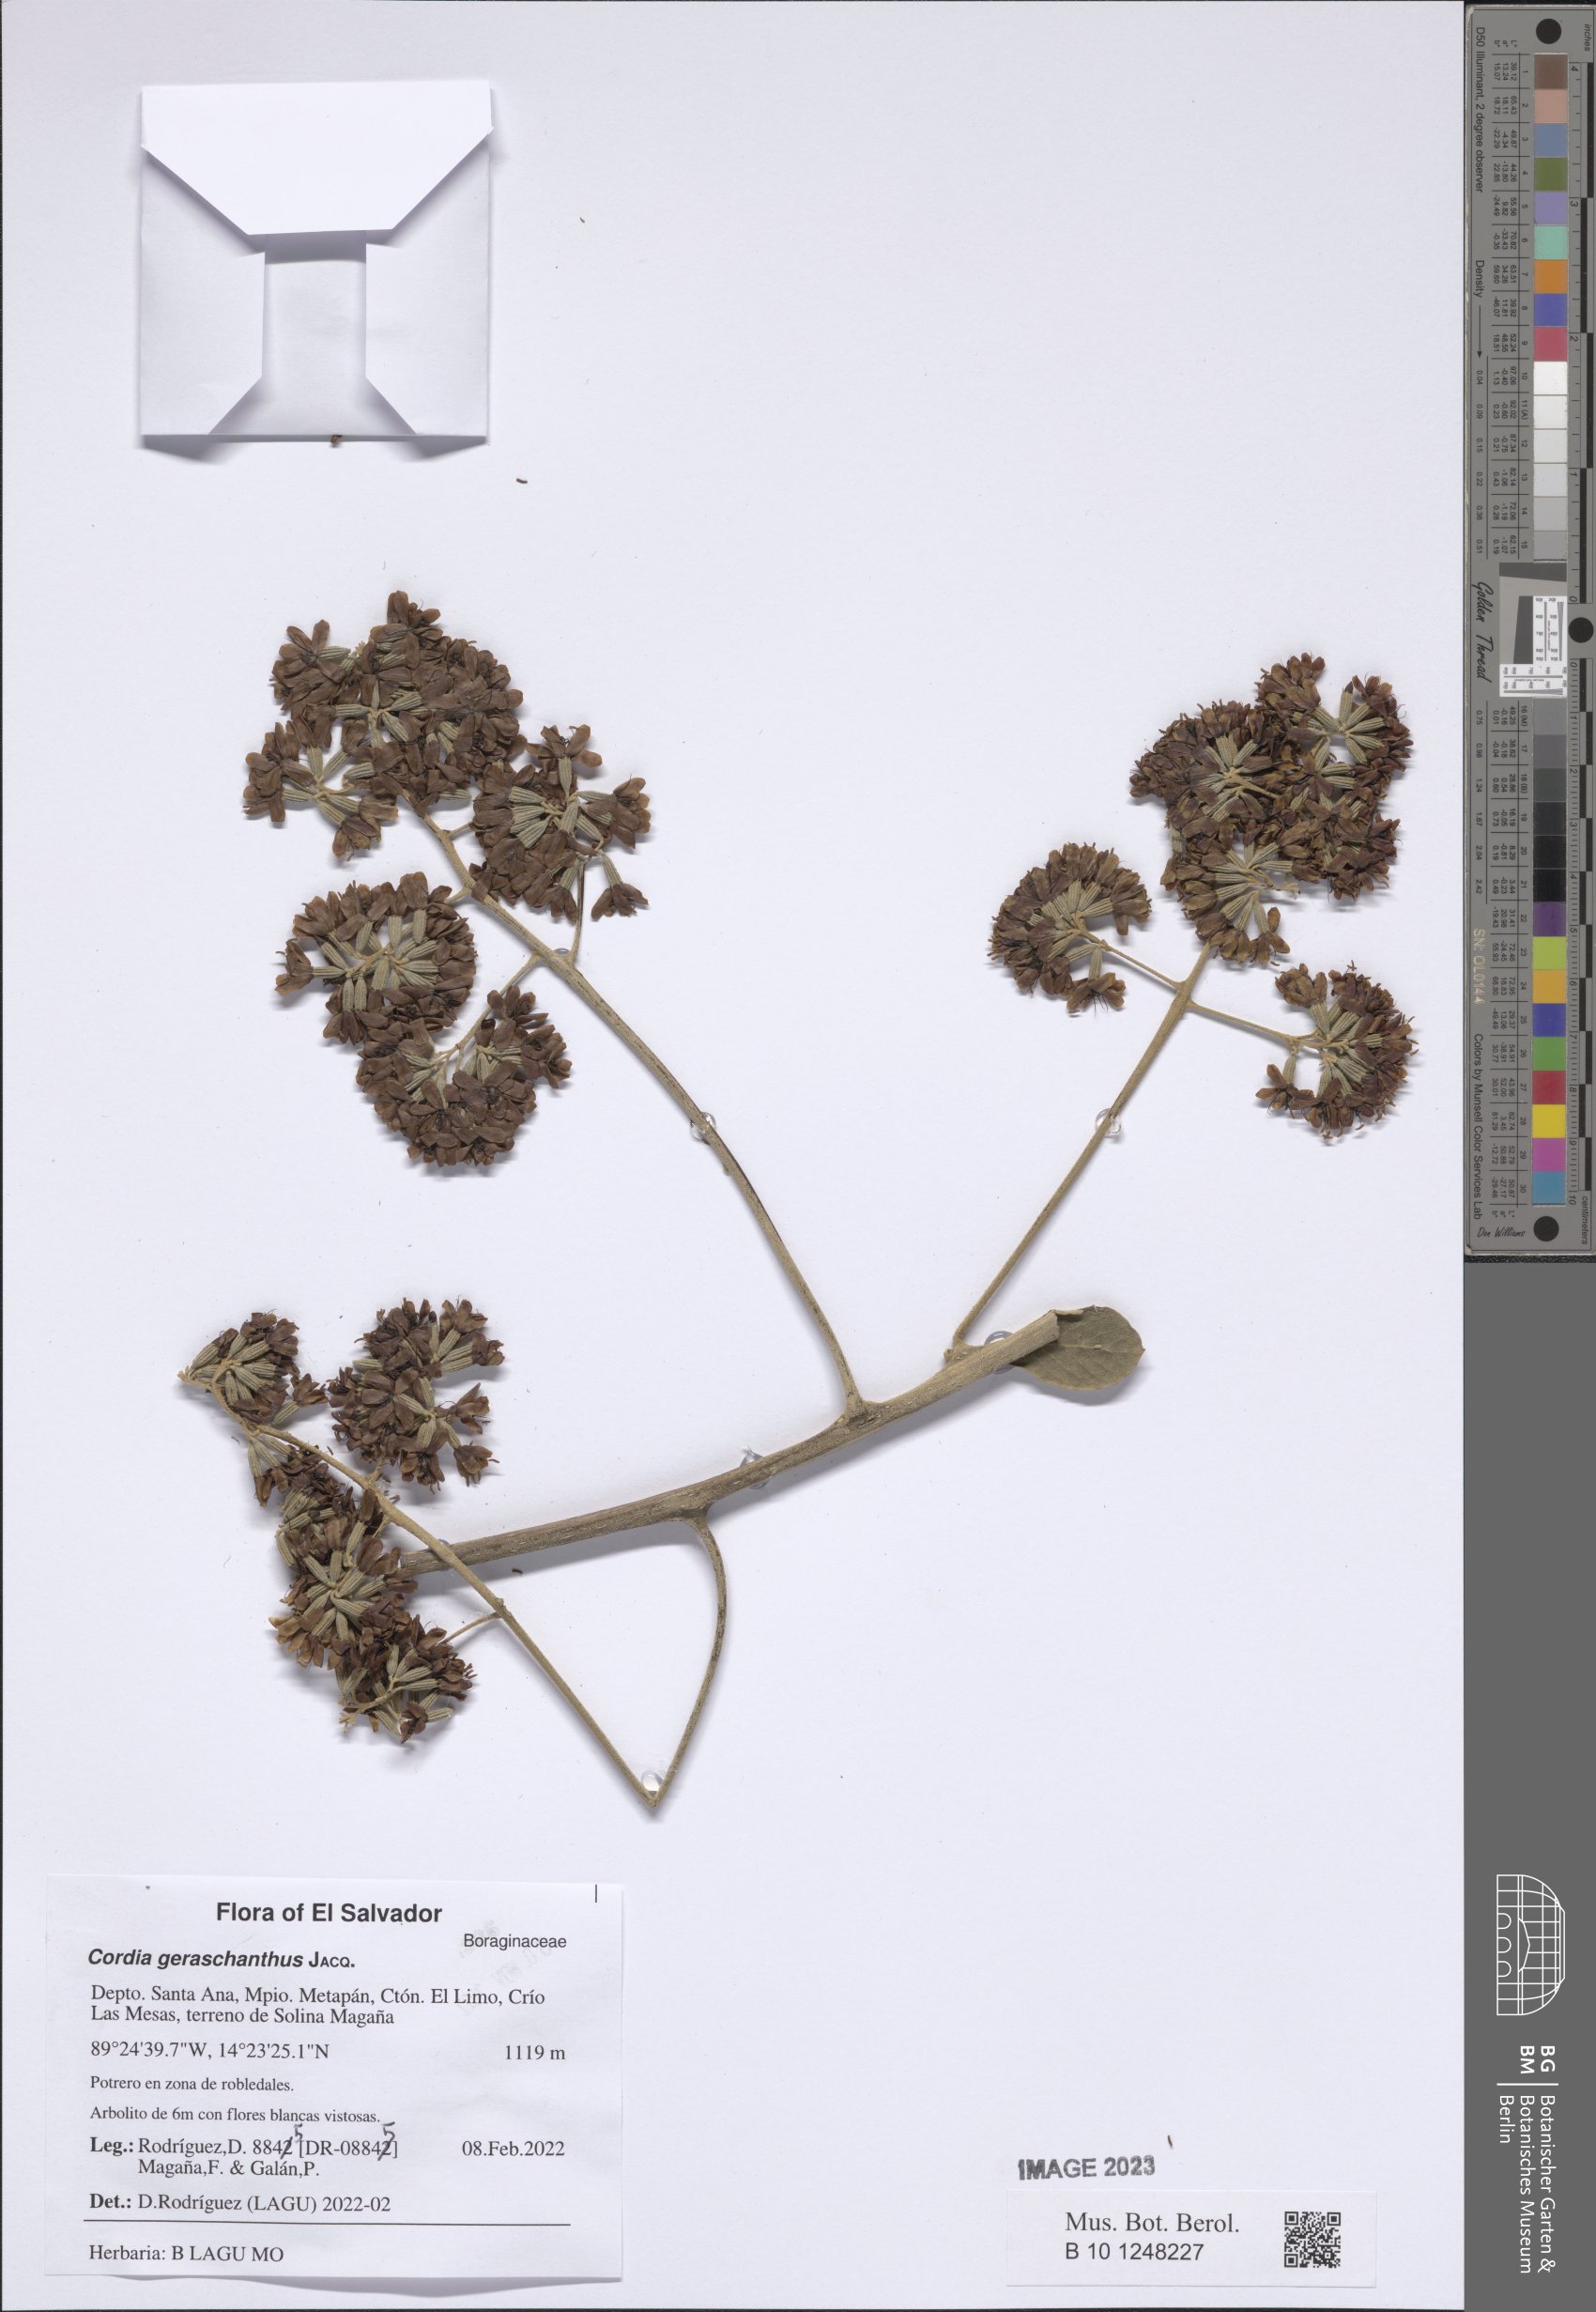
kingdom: Plantae
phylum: Tracheophyta
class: Magnoliopsida
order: Boraginales
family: Heliotropiaceae
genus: Heliotropium
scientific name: Heliotropium
